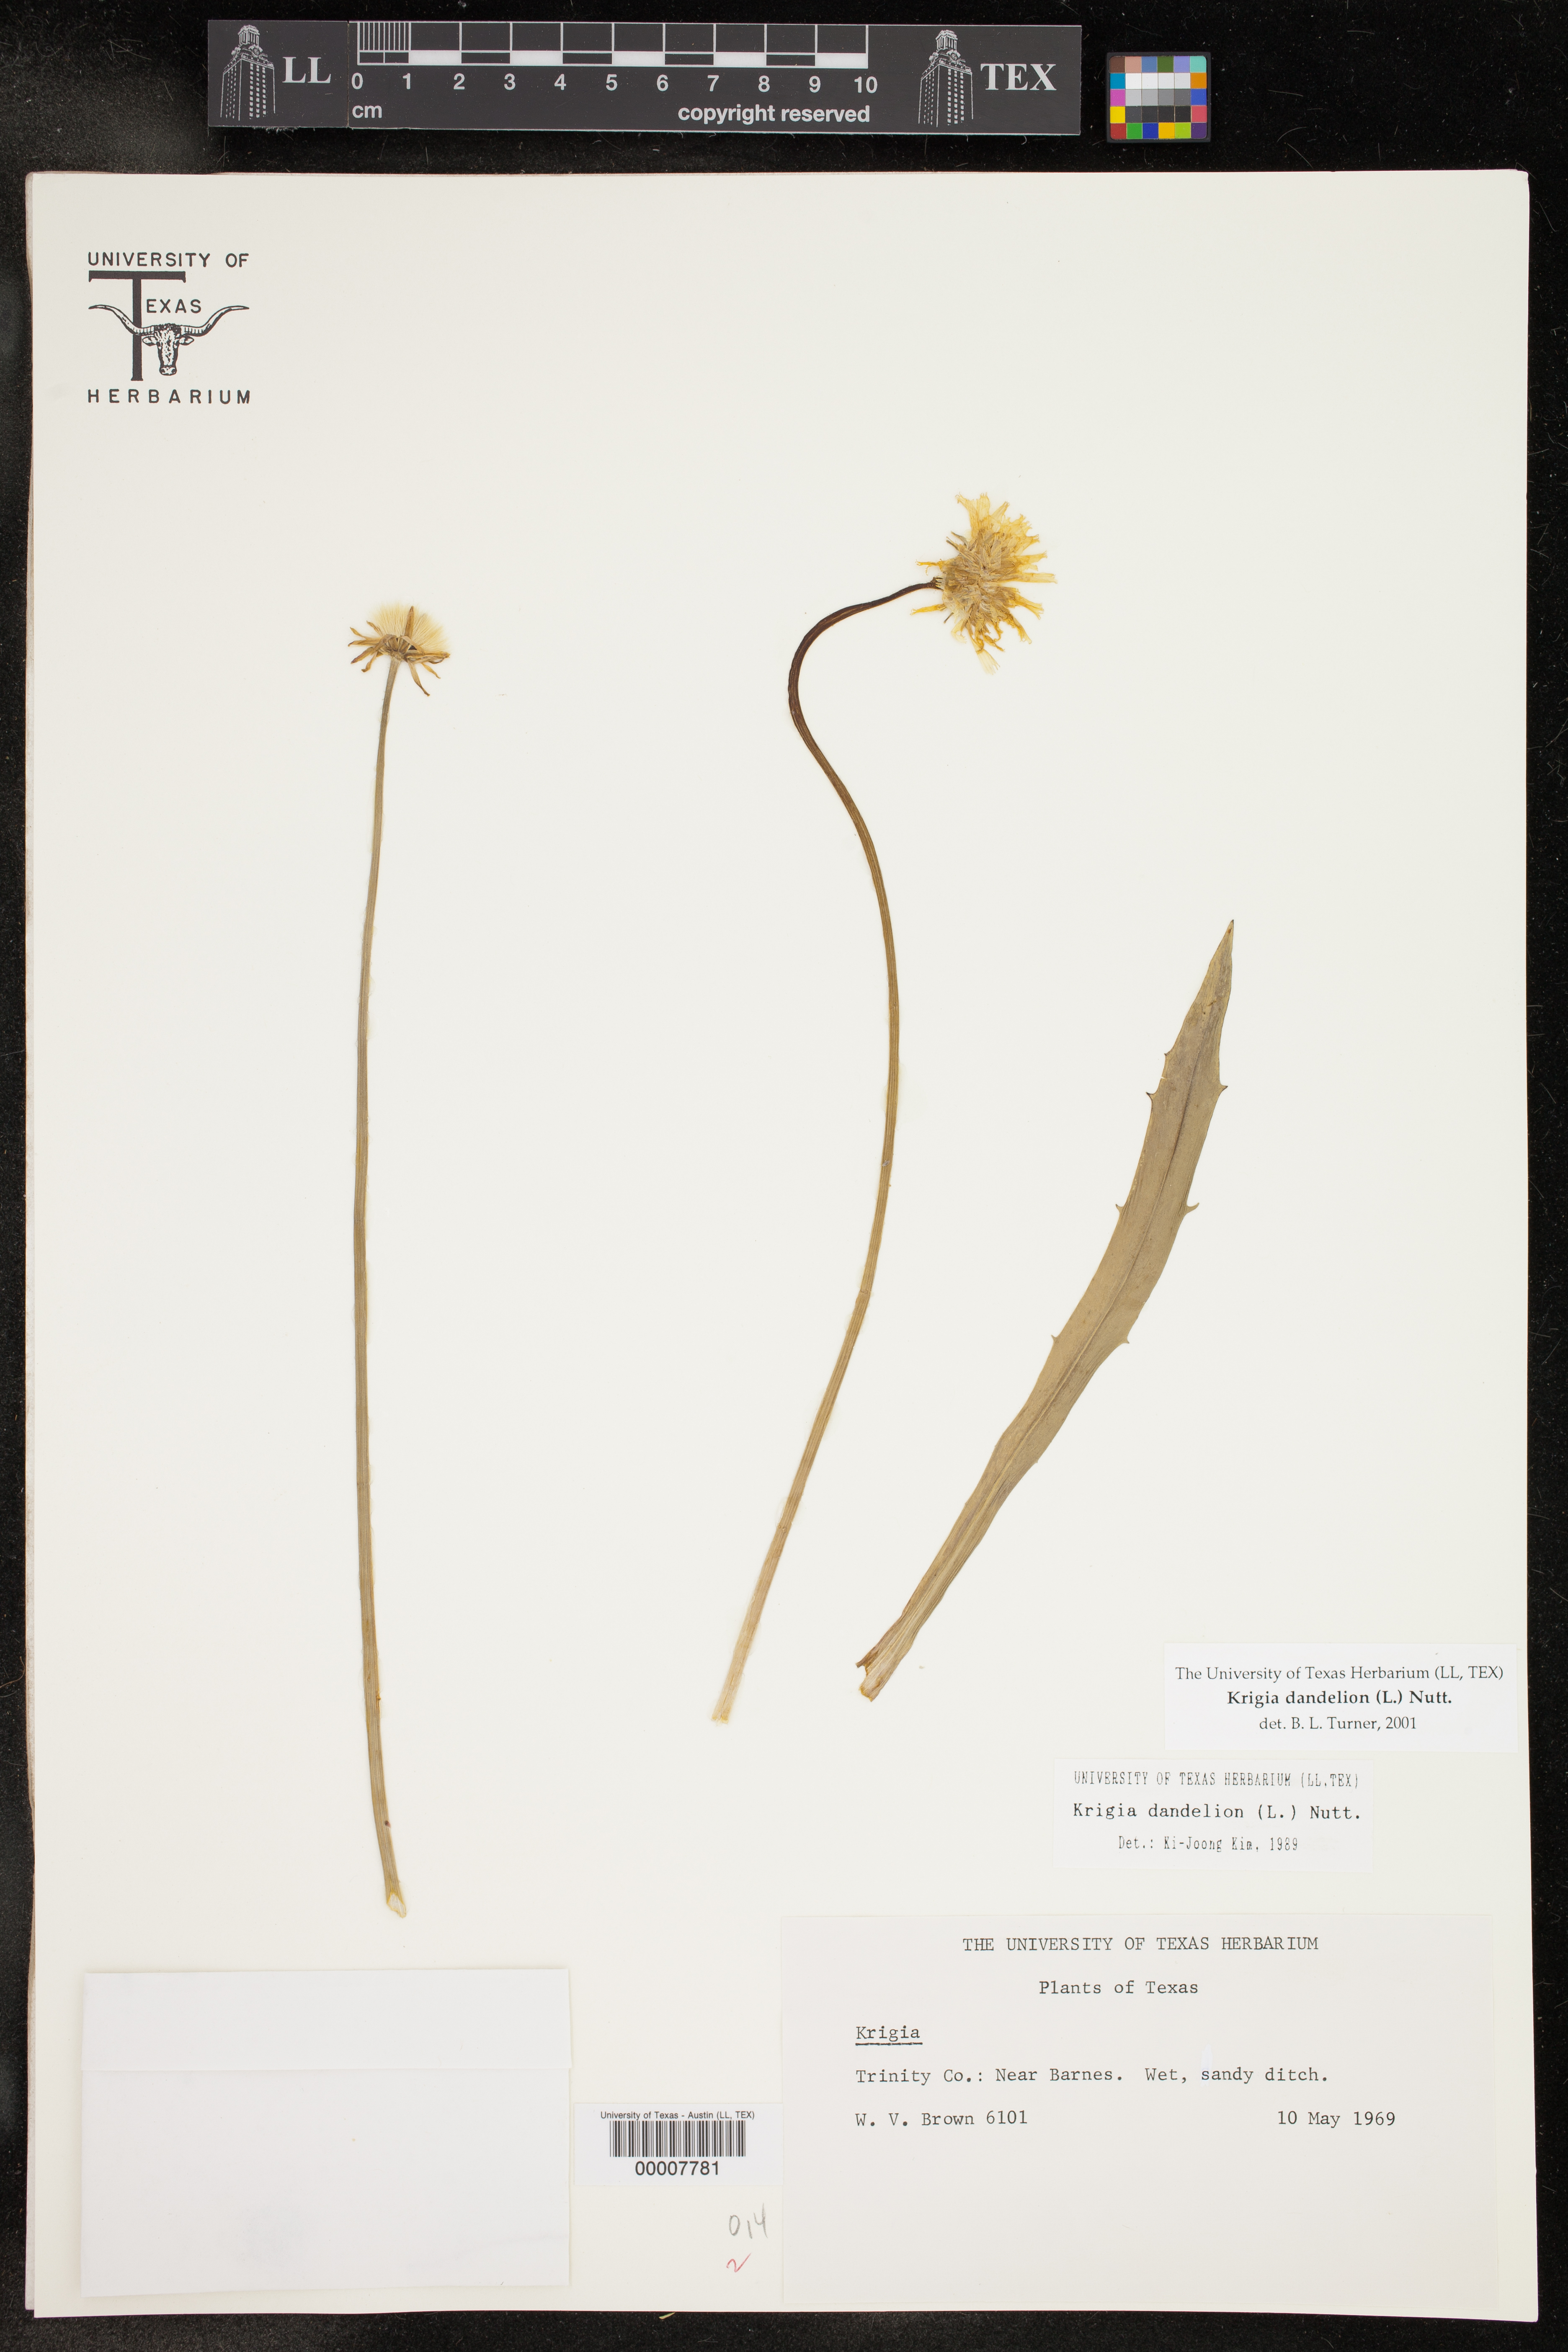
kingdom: Plantae
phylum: Tracheophyta
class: Magnoliopsida
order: Asterales
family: Asteraceae
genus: Krigia
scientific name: Krigia dandelion
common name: Colonial dwarf-dandelion
